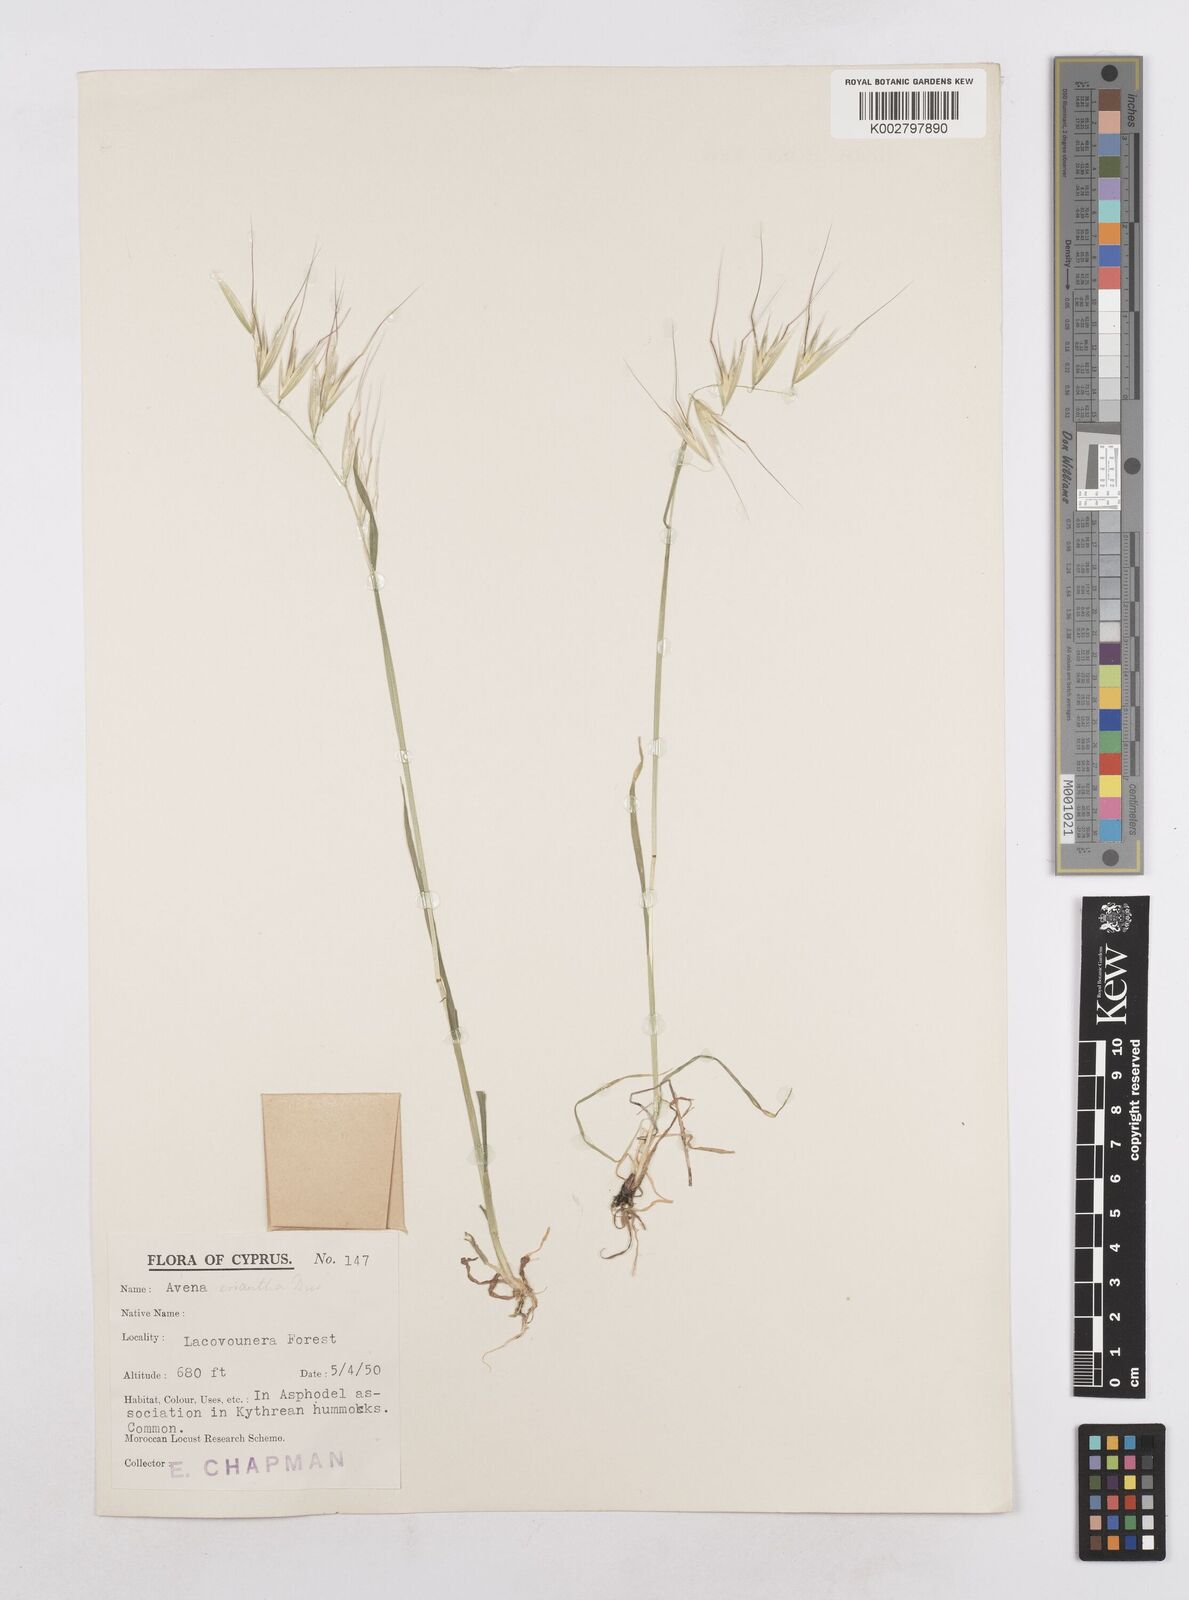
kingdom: Plantae
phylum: Tracheophyta
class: Liliopsida
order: Poales
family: Poaceae
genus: Avena
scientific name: Avena eriantha
